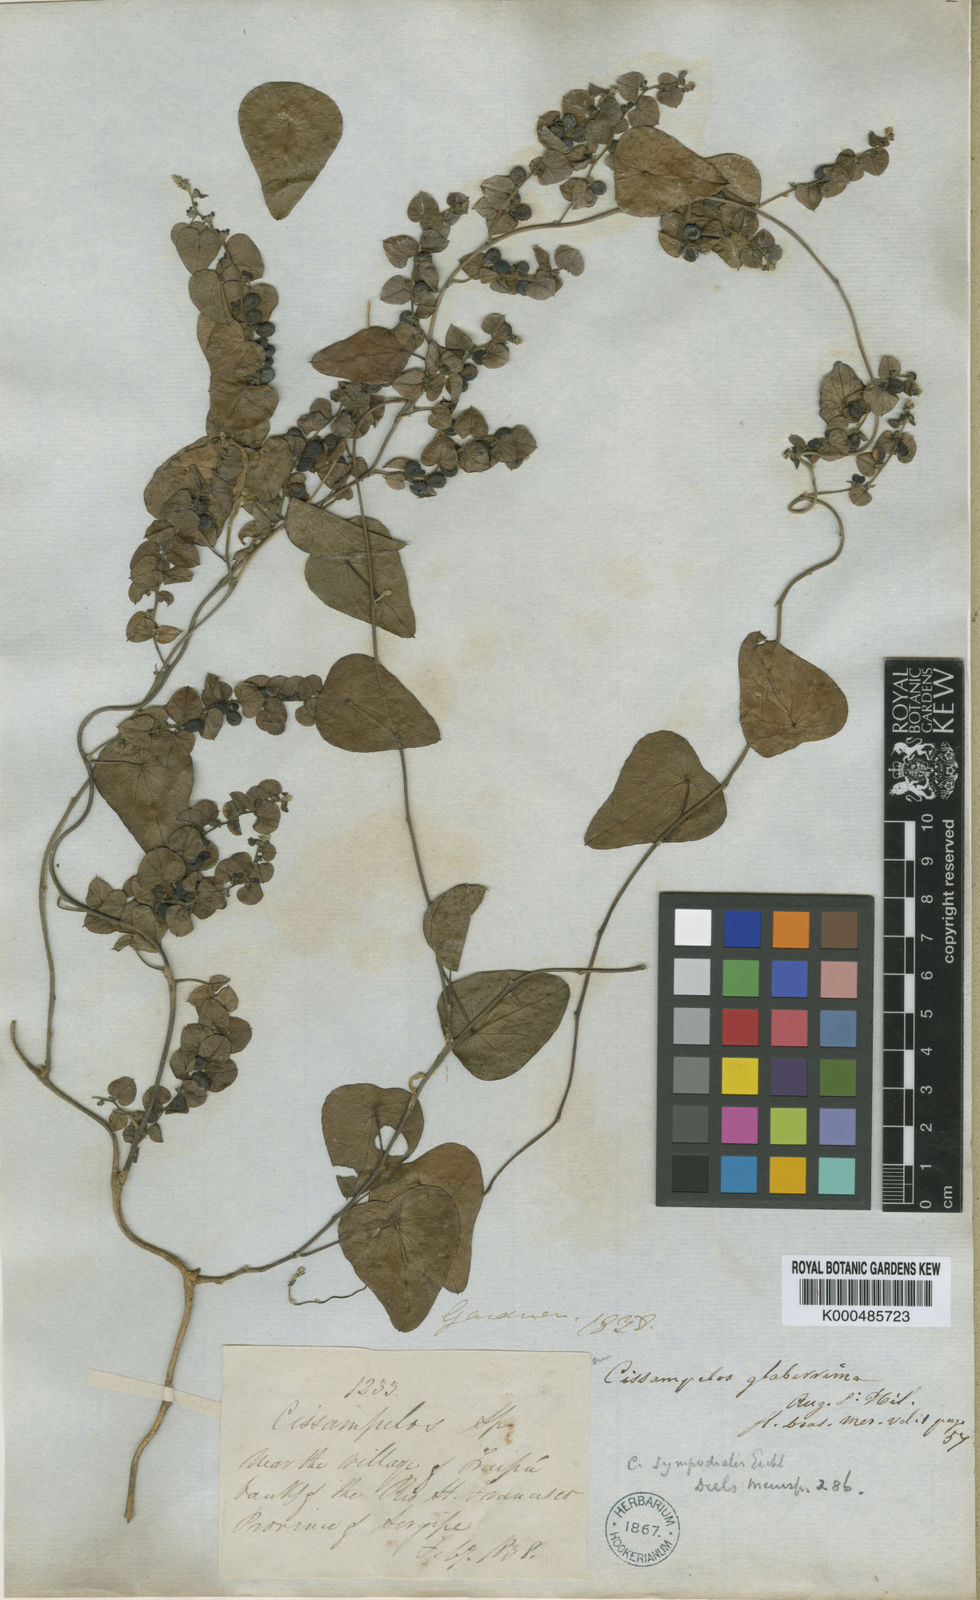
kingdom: Plantae
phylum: Tracheophyta
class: Magnoliopsida
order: Ranunculales
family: Menispermaceae
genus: Cissampelos
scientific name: Cissampelos sympodialis
